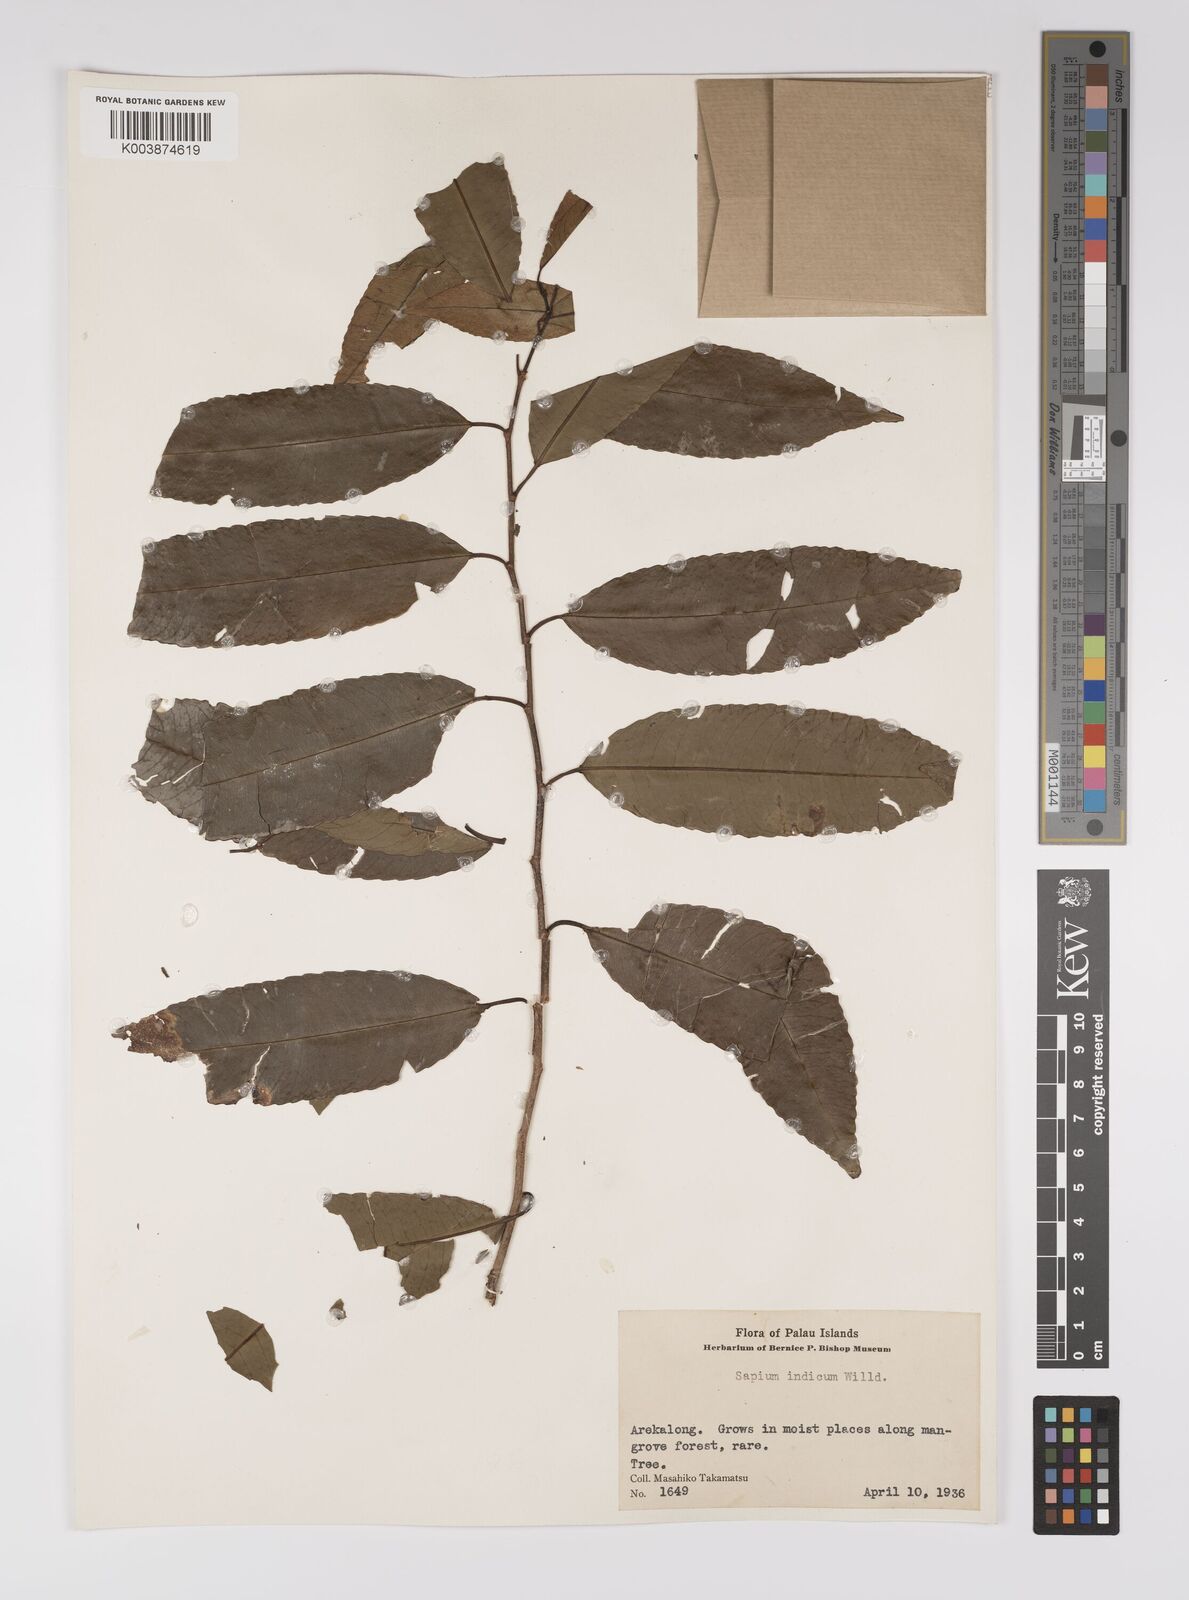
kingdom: Plantae
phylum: Tracheophyta
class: Magnoliopsida
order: Malpighiales
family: Euphorbiaceae
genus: Shirakiopsis
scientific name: Shirakiopsis indica
